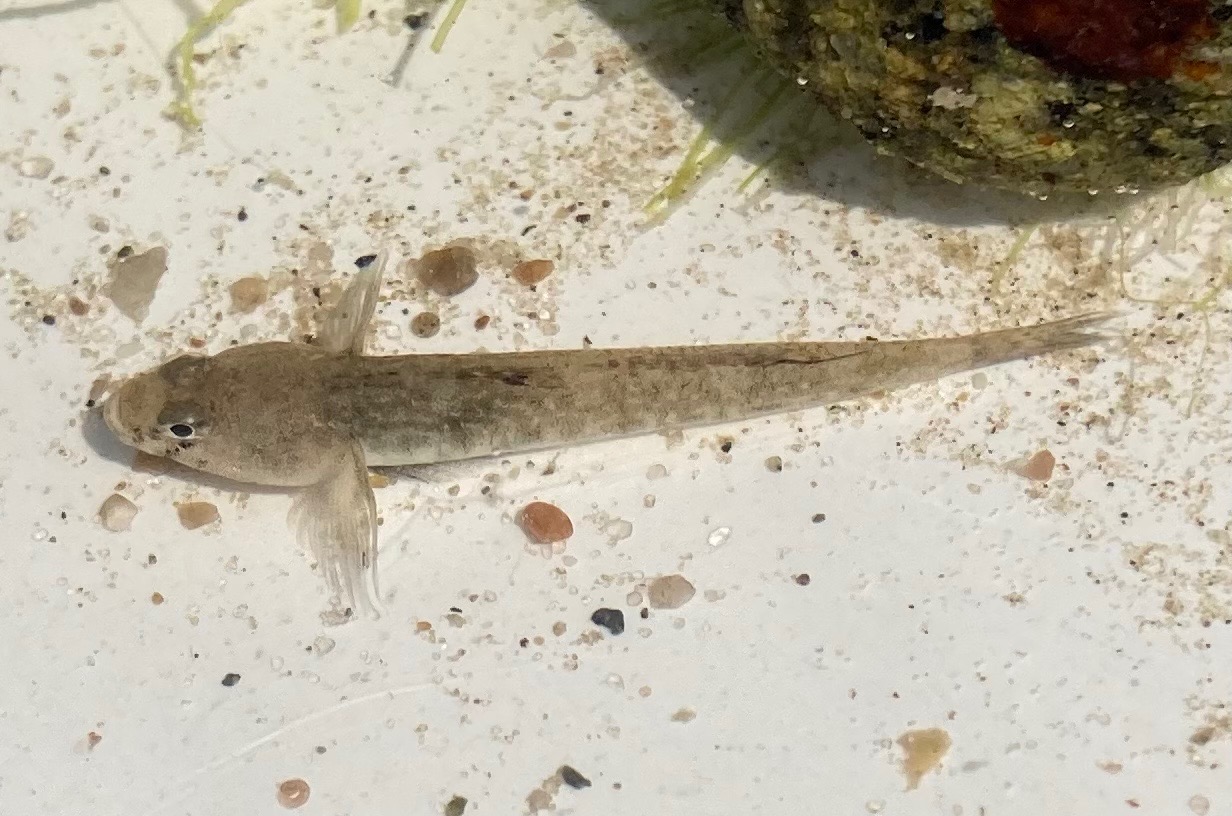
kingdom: Animalia
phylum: Chordata
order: Perciformes
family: Gobiidae
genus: Pomatoschistus
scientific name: Pomatoschistus
